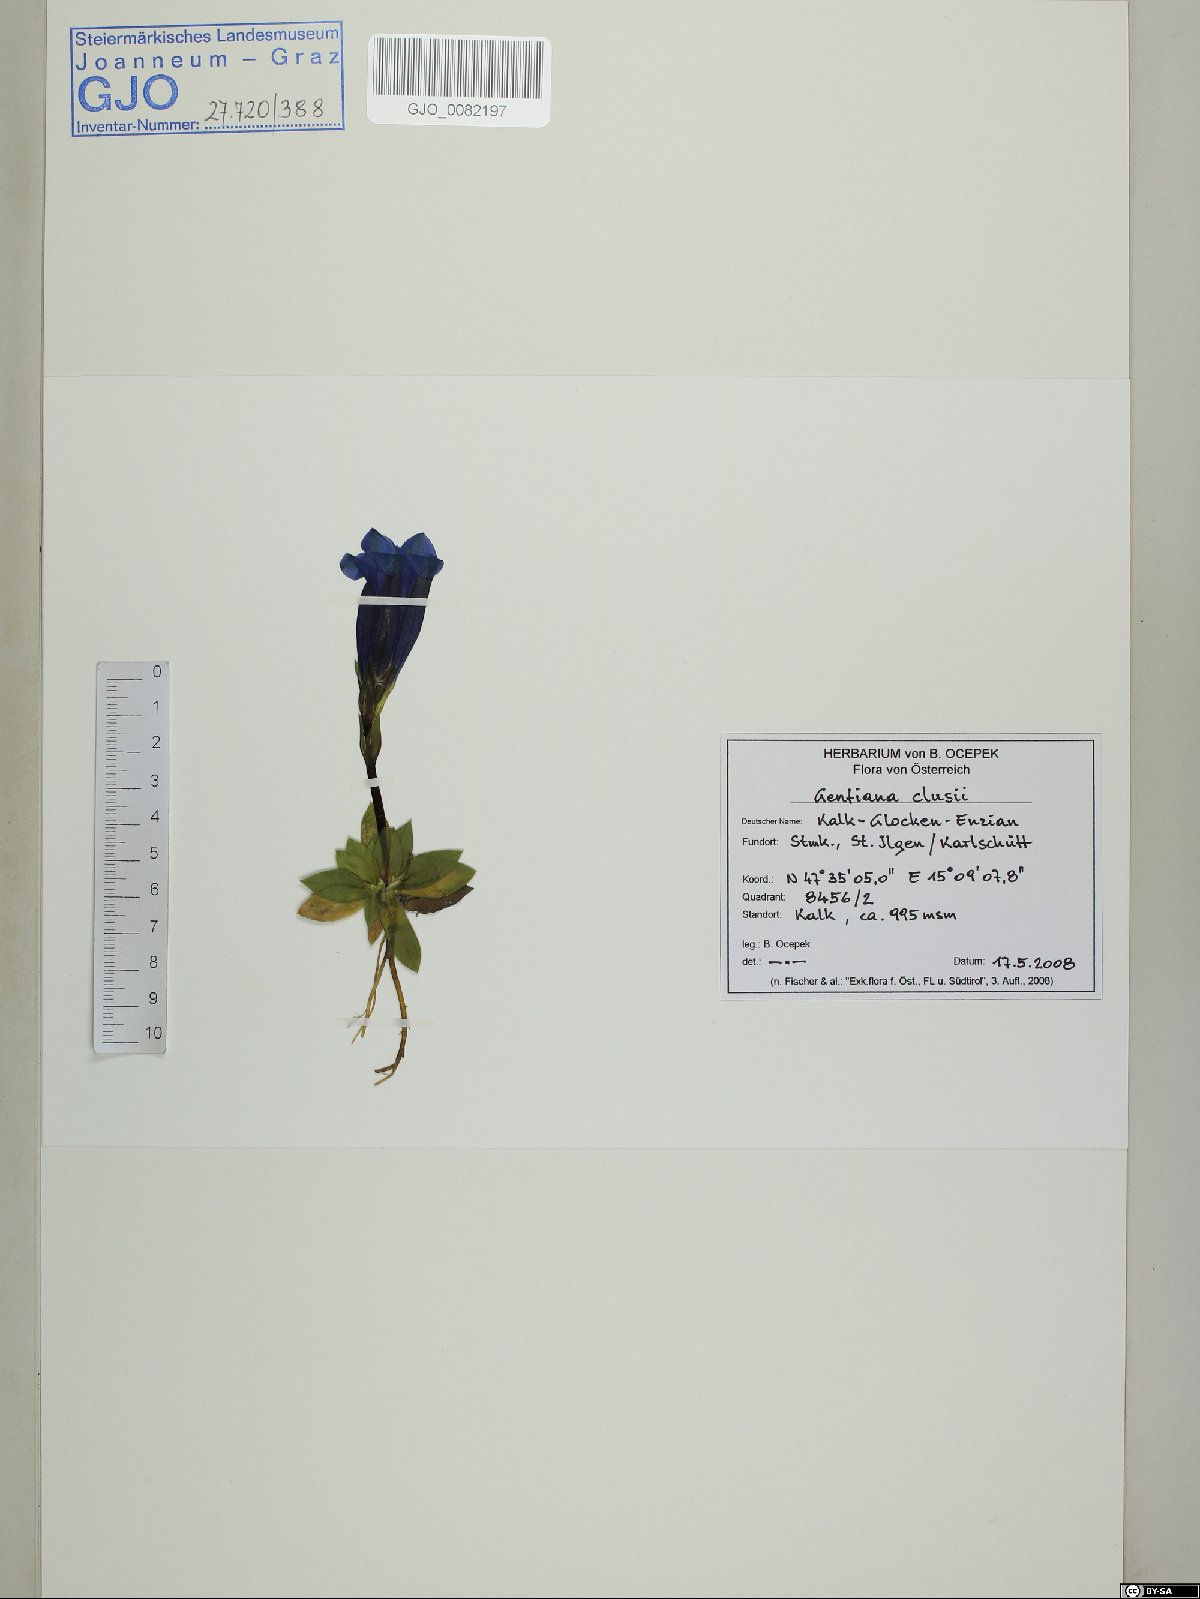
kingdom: Plantae
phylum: Tracheophyta
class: Magnoliopsida
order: Gentianales
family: Gentianaceae
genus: Gentiana
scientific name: Gentiana clusii
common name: Trumpet gentian
